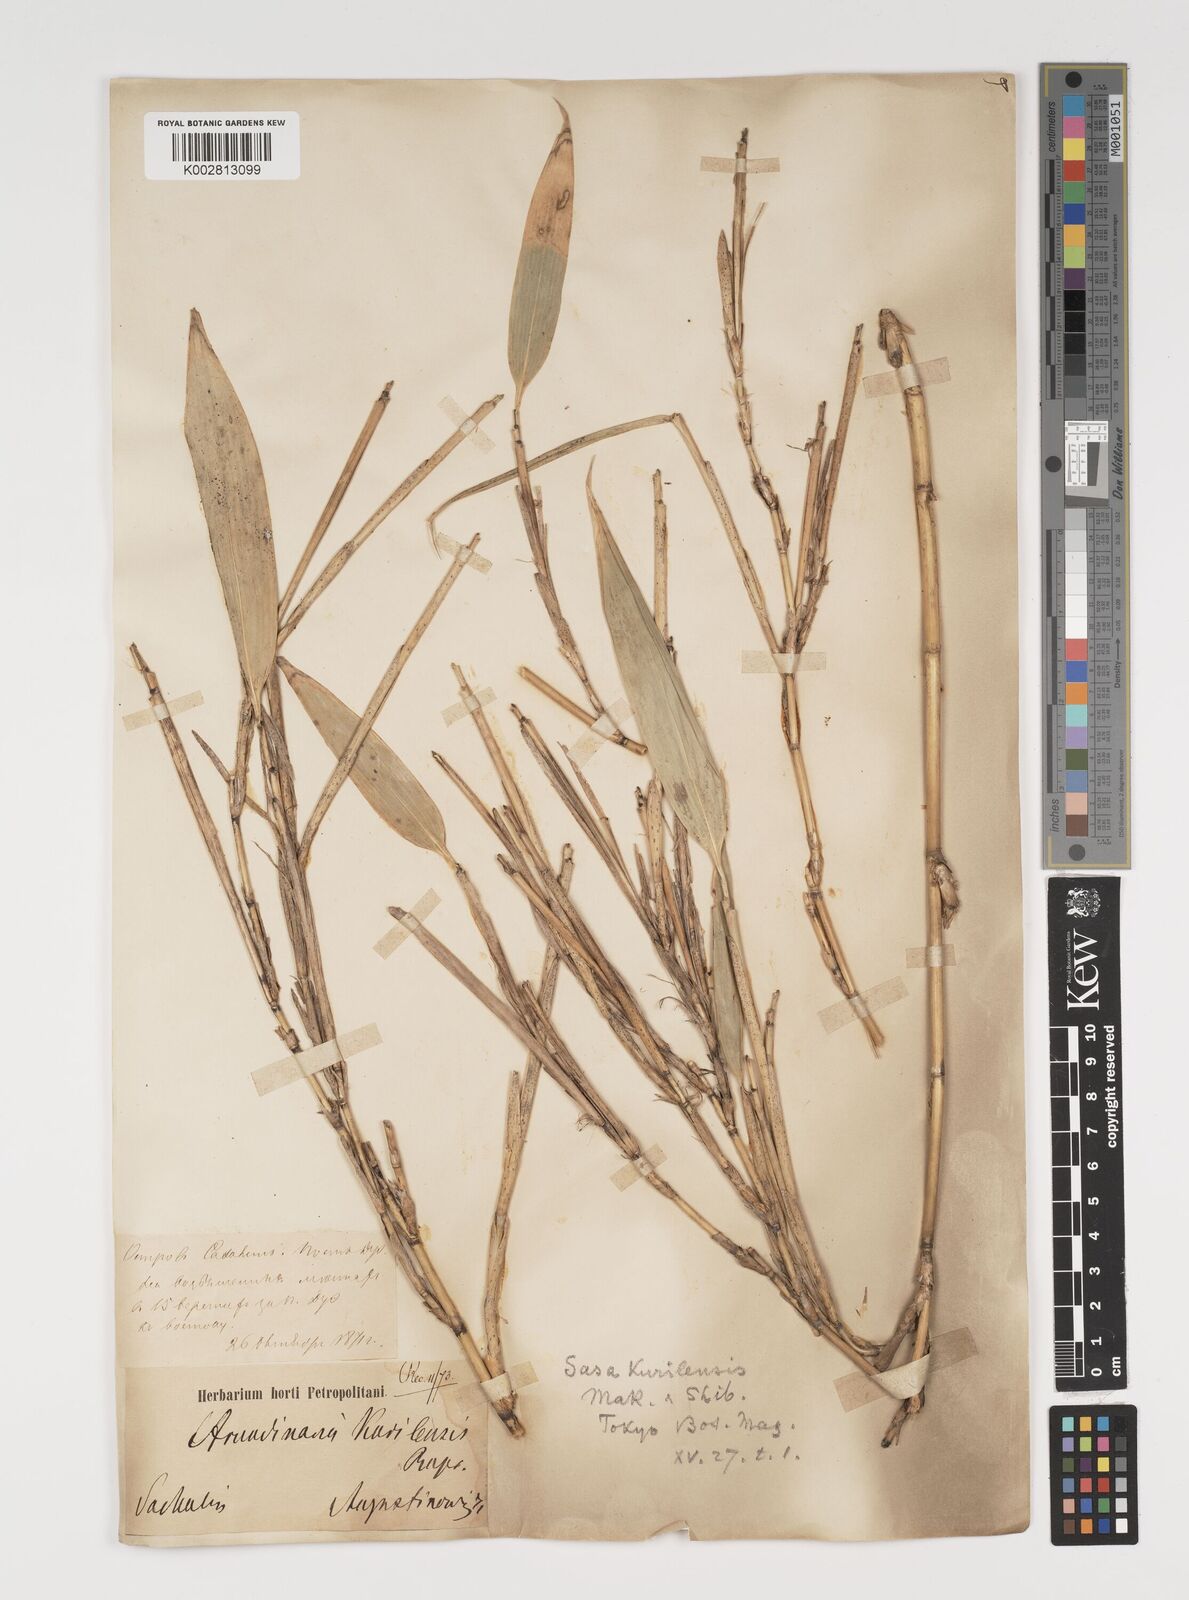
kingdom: Plantae
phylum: Tracheophyta
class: Liliopsida
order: Poales
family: Poaceae
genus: Sasa
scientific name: Sasa kurilensis
